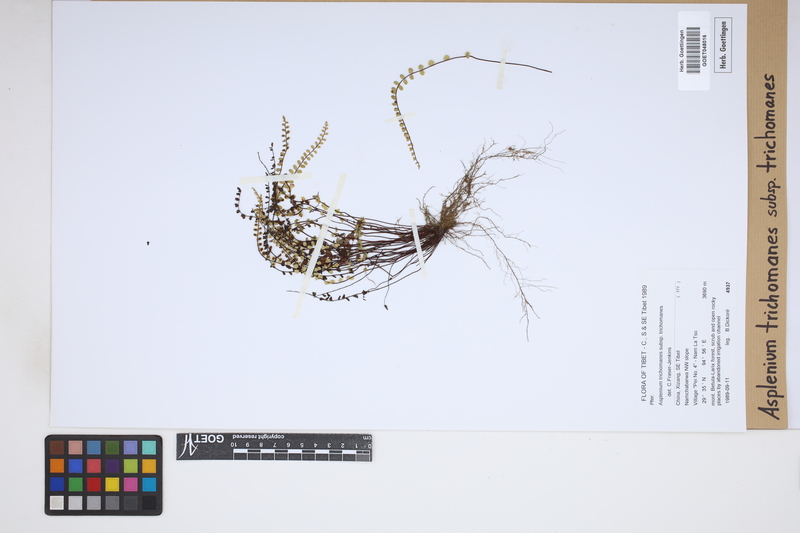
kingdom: Plantae
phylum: Tracheophyta
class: Polypodiopsida
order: Polypodiales
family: Aspleniaceae
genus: Asplenium
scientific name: Asplenium trichomanes
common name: Maidenhair spleenwort
